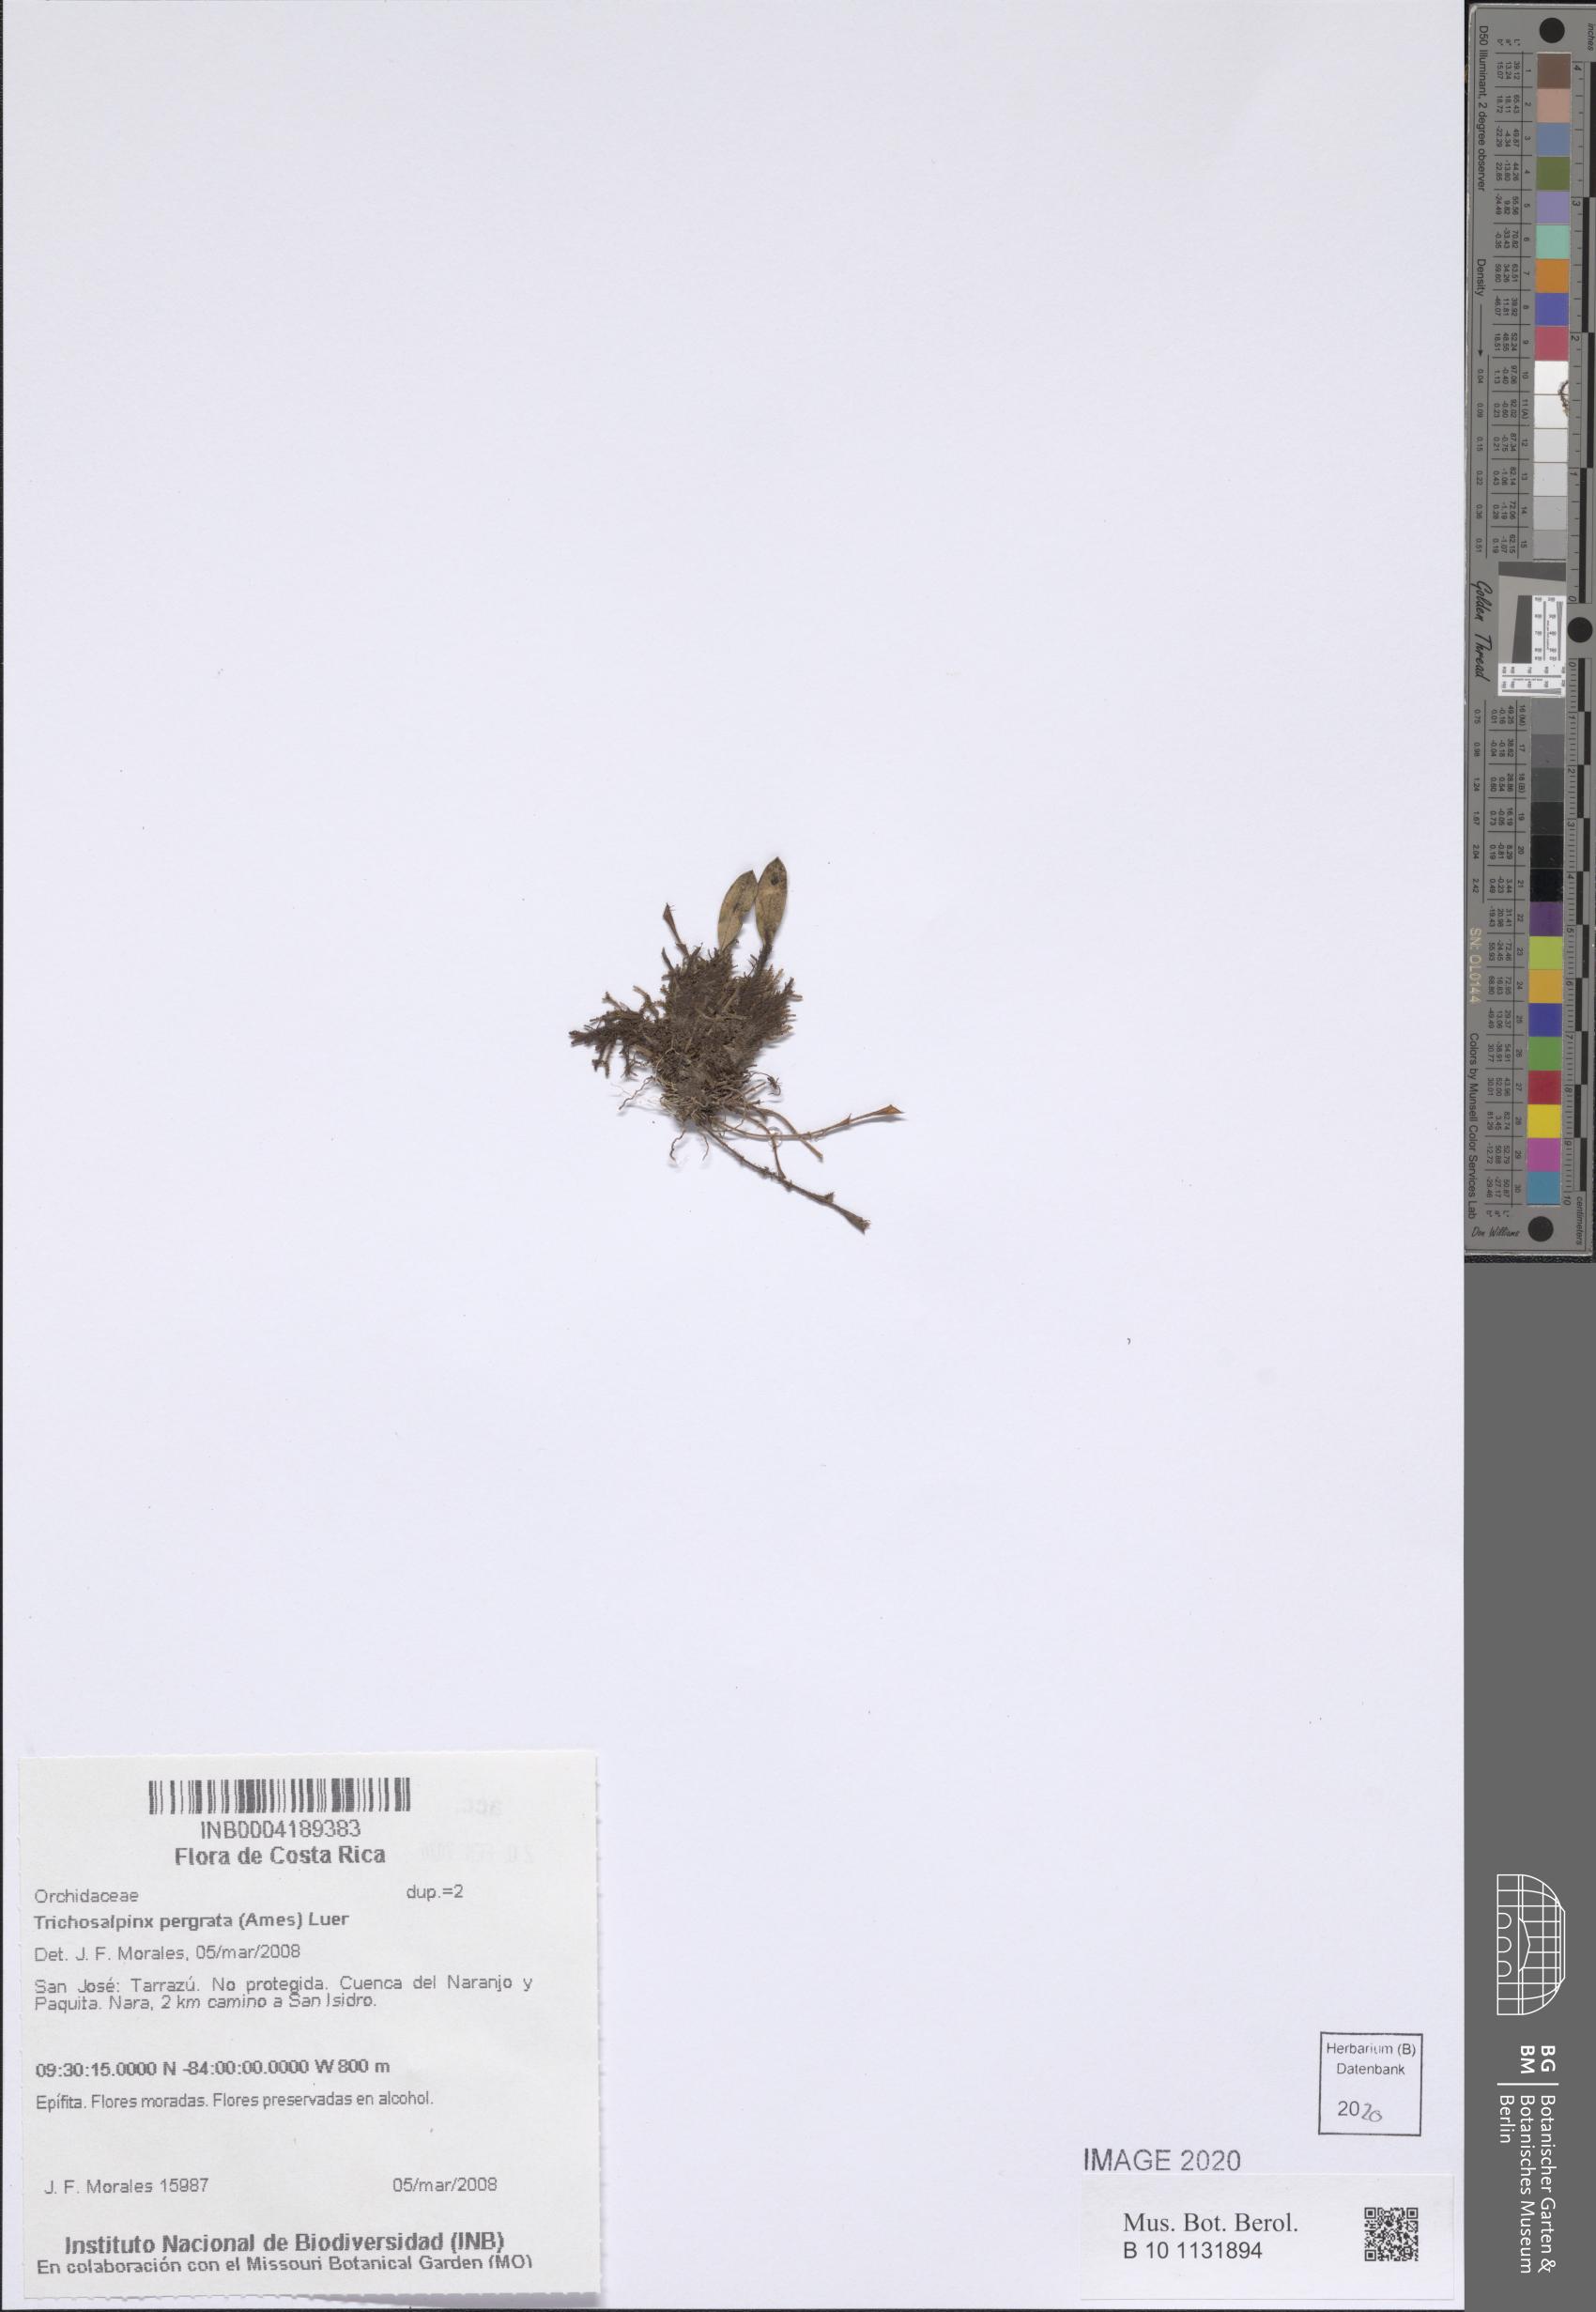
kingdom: Plantae
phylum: Tracheophyta
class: Liliopsida
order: Asparagales
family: Orchidaceae
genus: Stellamaris
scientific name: Stellamaris pergrata
